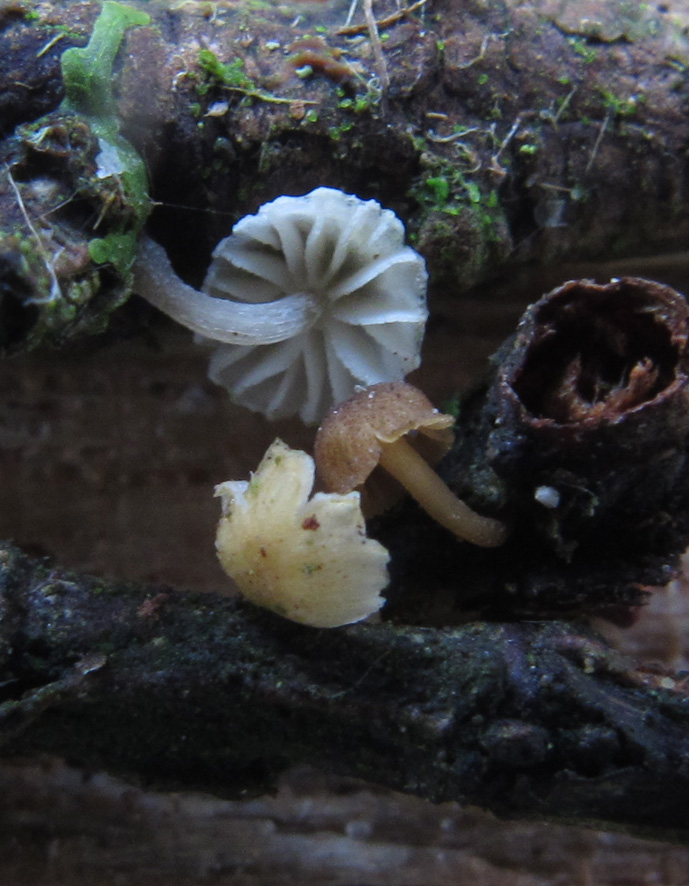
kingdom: Fungi
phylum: Basidiomycota
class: Agaricomycetes
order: Agaricales
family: Mycenaceae
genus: Mycena
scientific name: Mycena juniperina
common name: ene-Huesvamp
